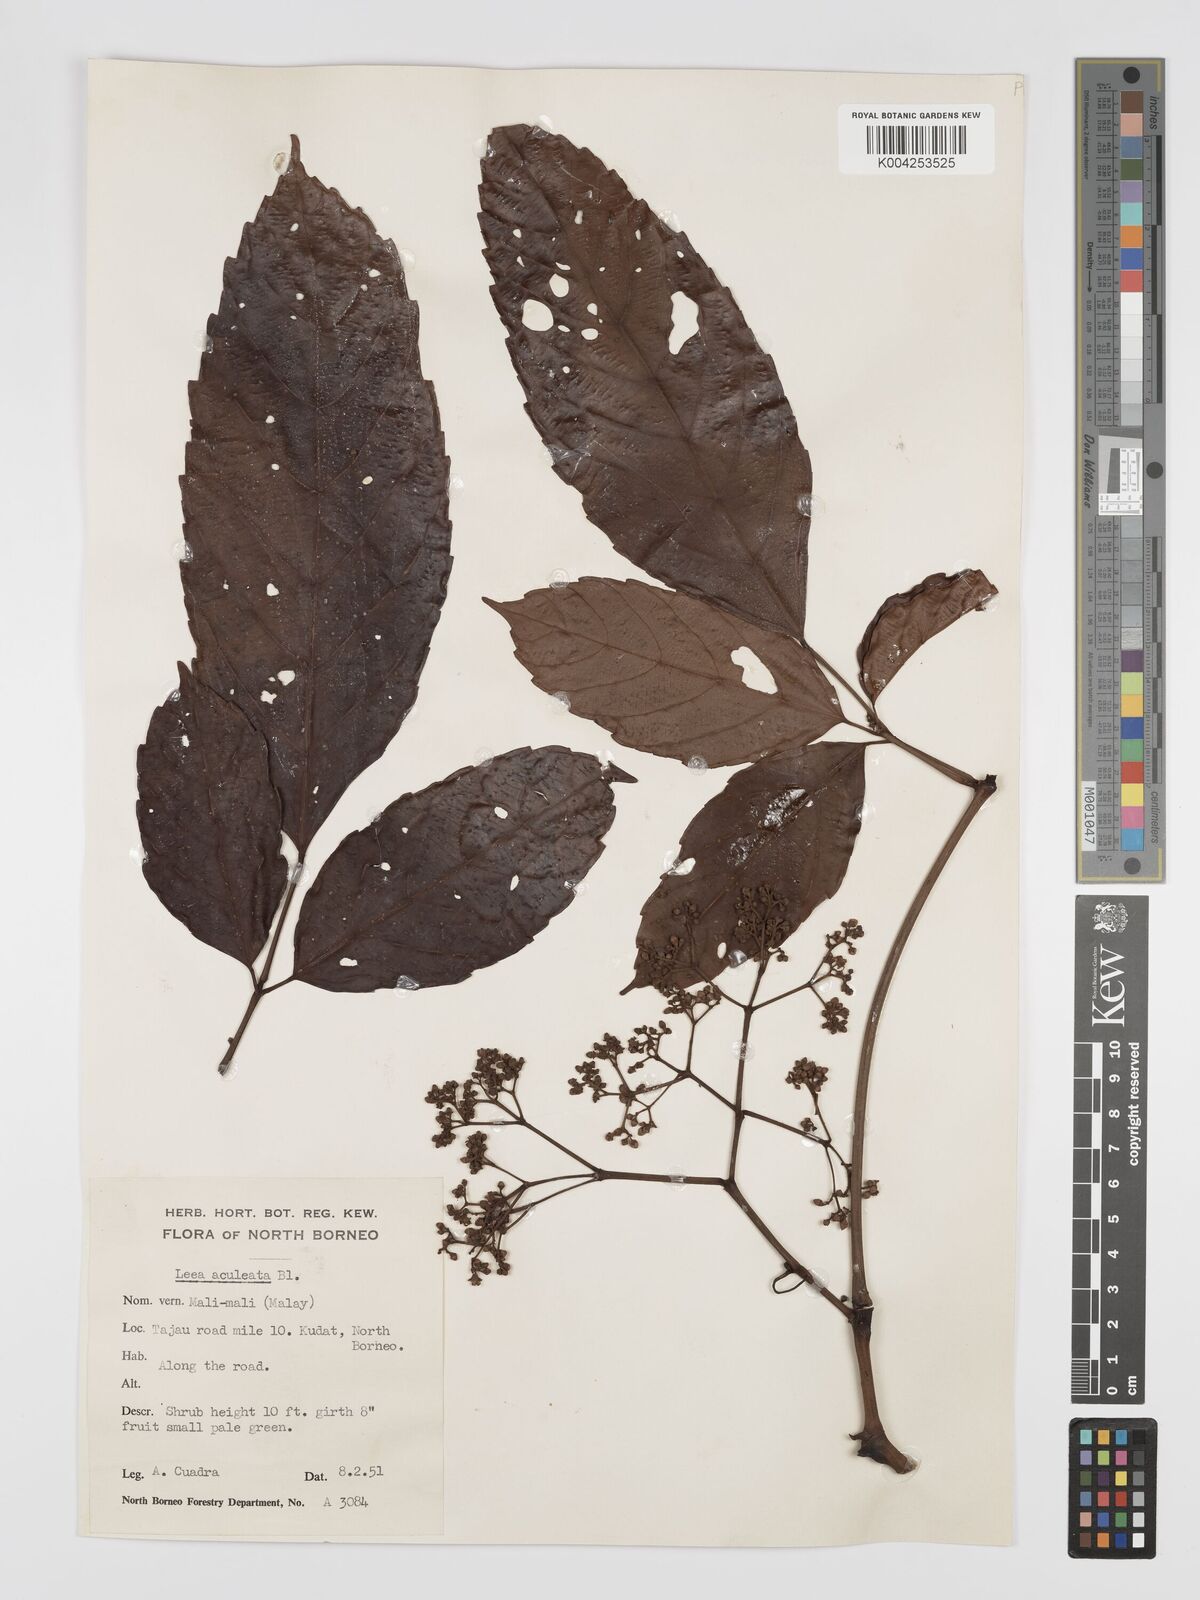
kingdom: Plantae
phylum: Tracheophyta
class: Magnoliopsida
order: Vitales
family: Vitaceae
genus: Leea
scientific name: Leea aculeata
